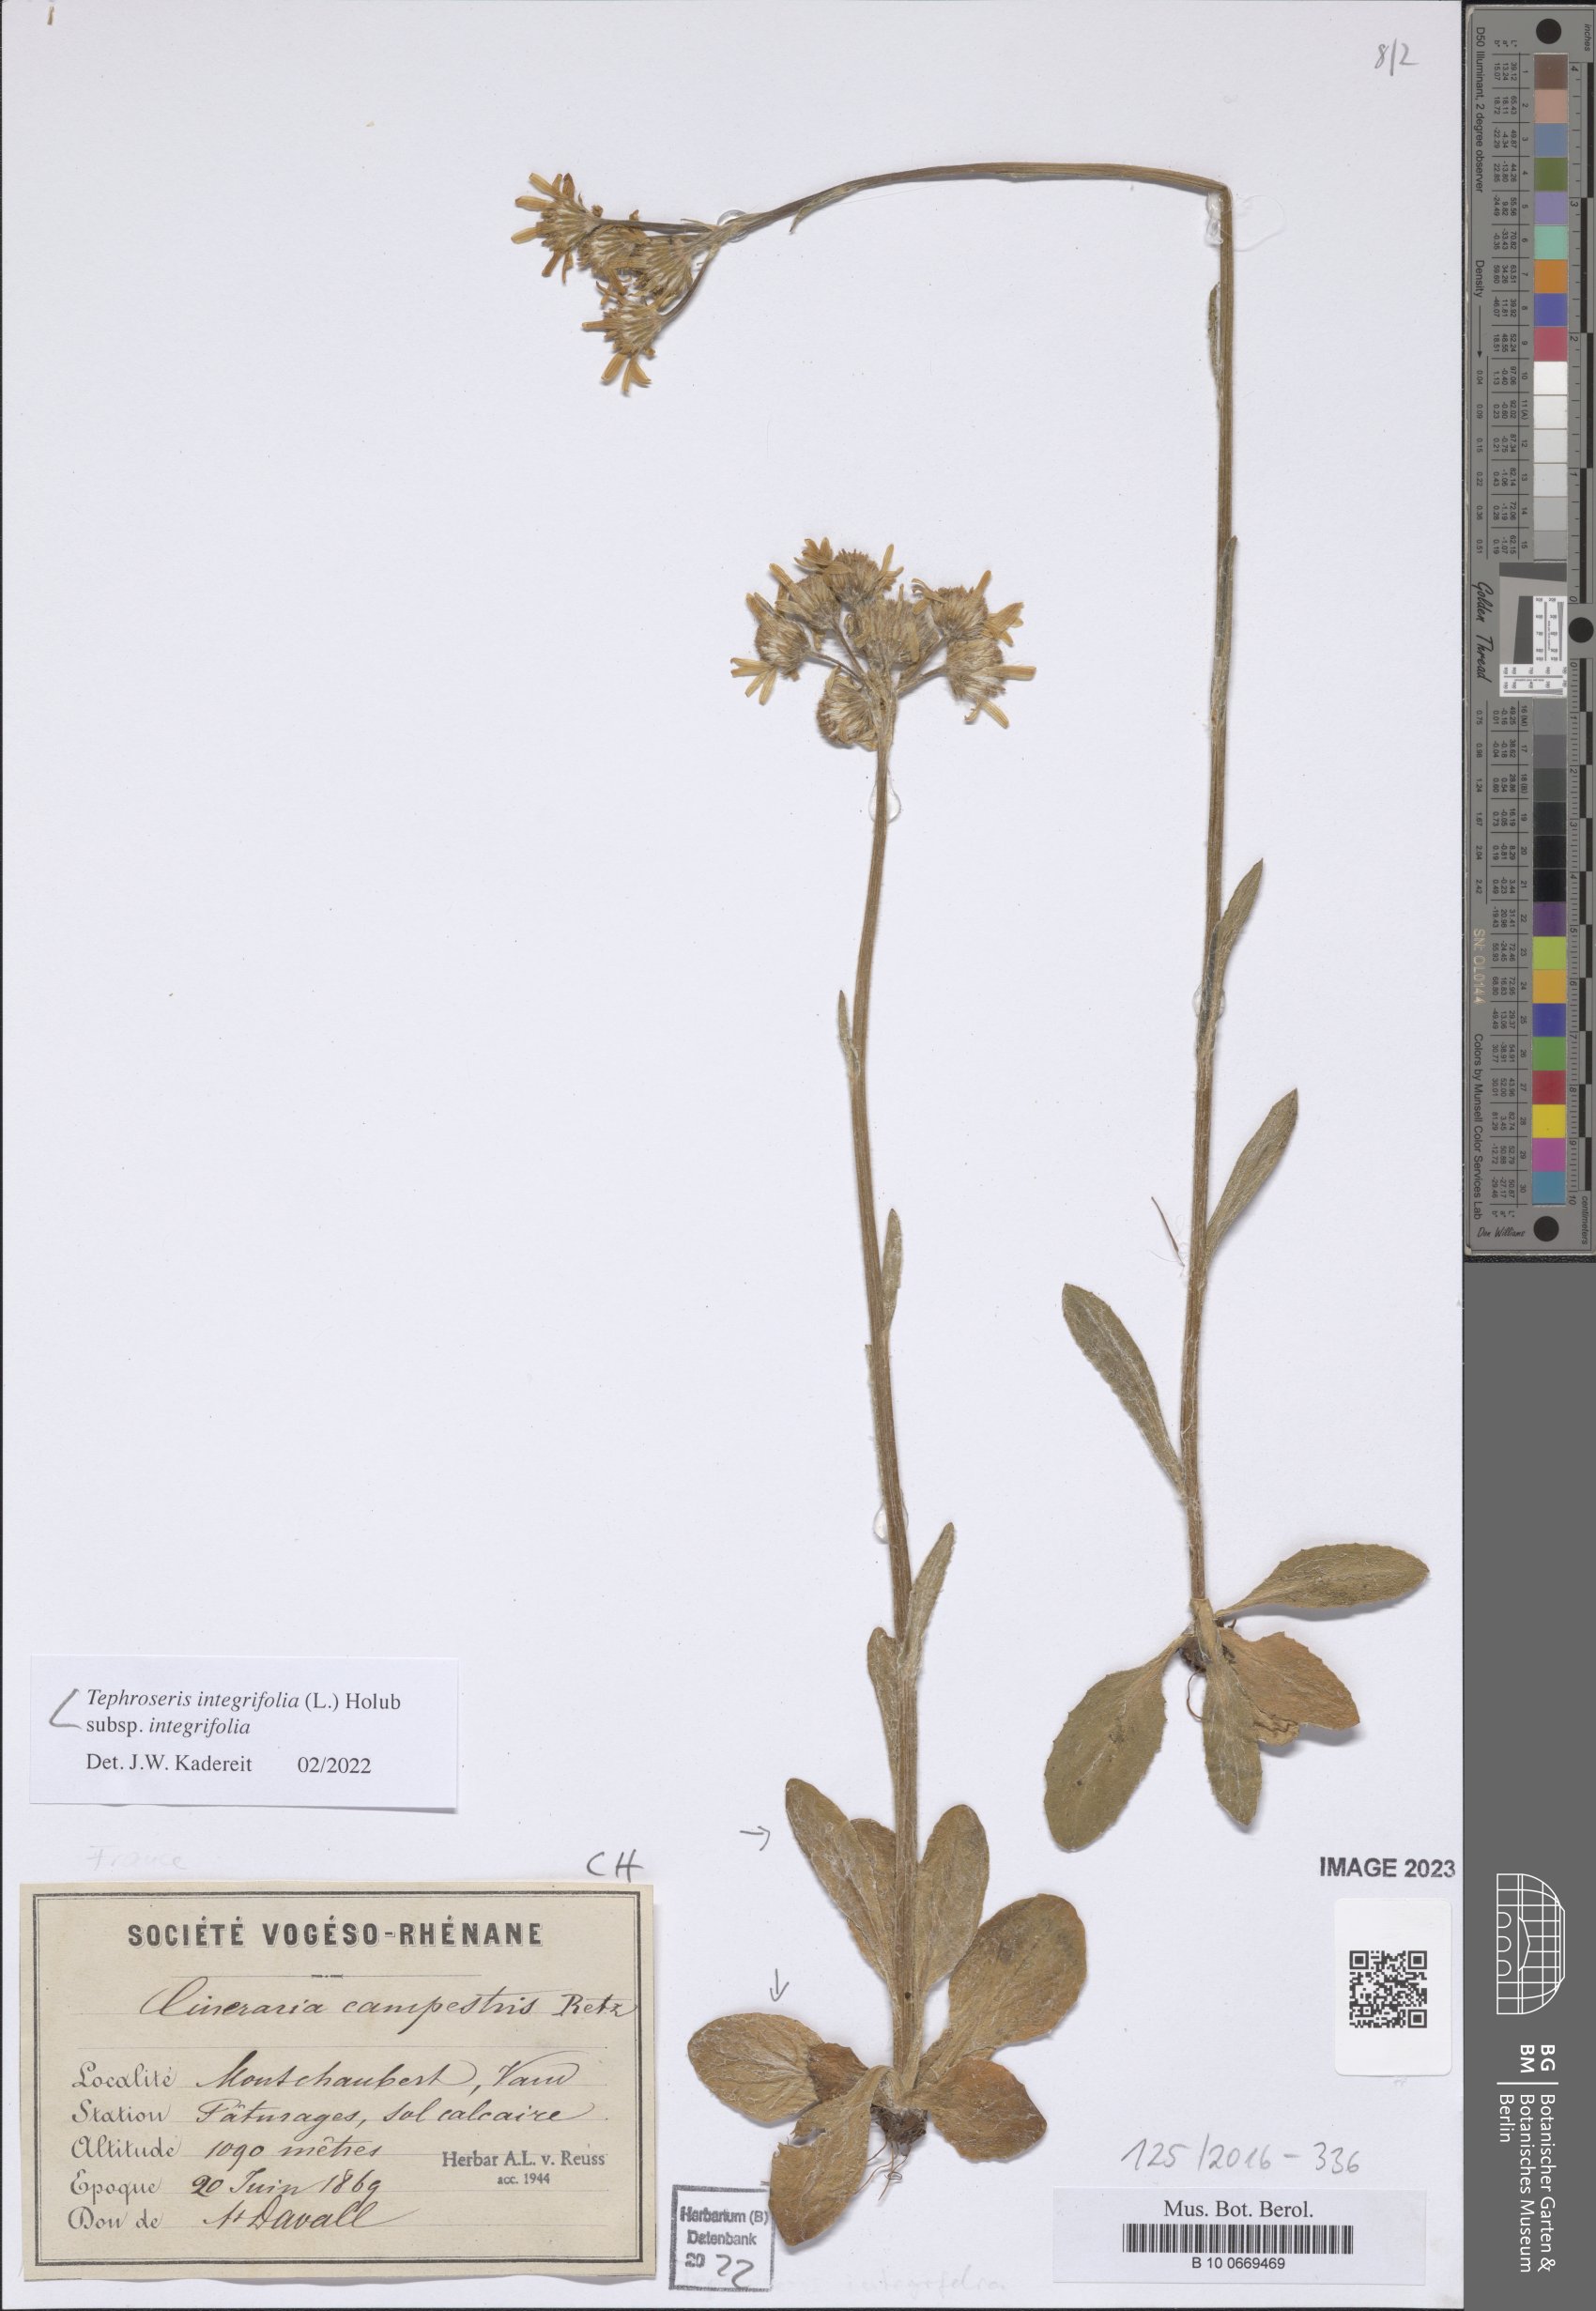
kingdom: Plantae
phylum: Tracheophyta
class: Magnoliopsida
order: Asterales
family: Asteraceae
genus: Tephroseris
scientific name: Tephroseris integrifolia
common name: Field fleawort
